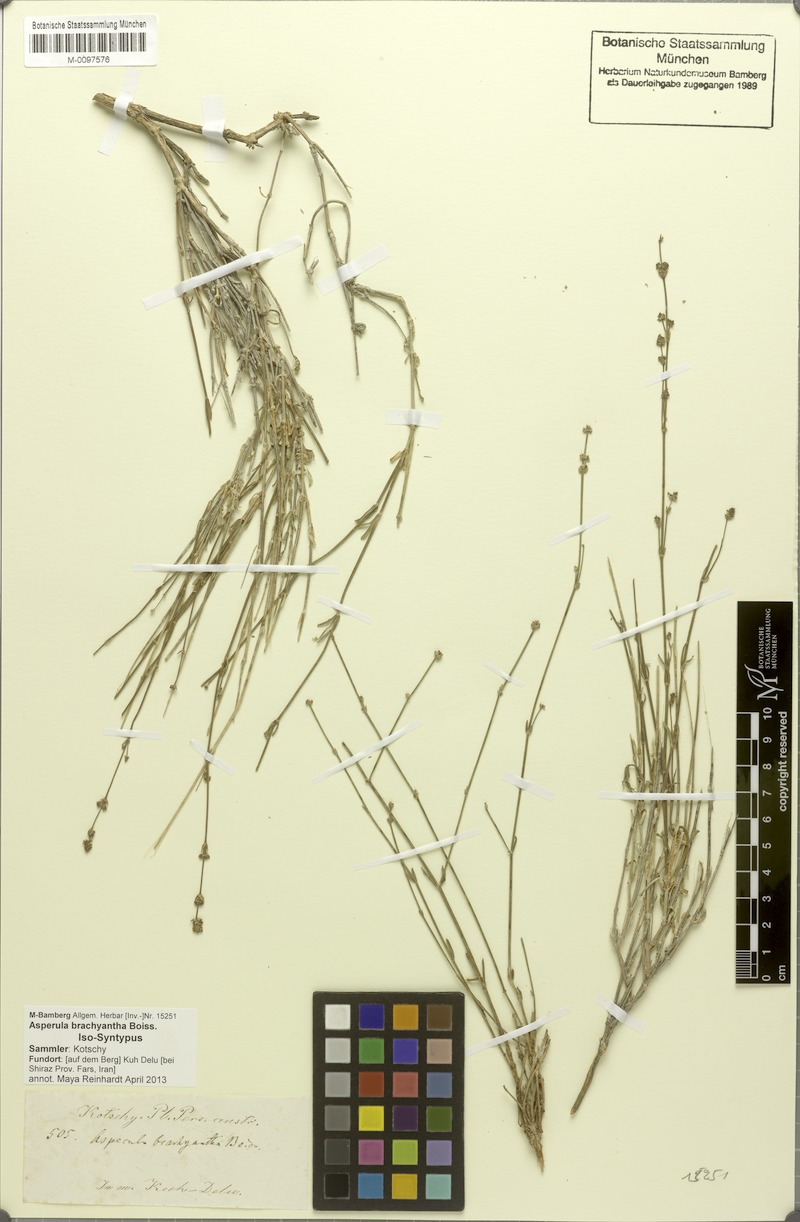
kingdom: Plantae
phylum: Tracheophyta
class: Magnoliopsida
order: Gentianales
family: Rubiaceae
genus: Asperula
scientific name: Asperula brachyantha
